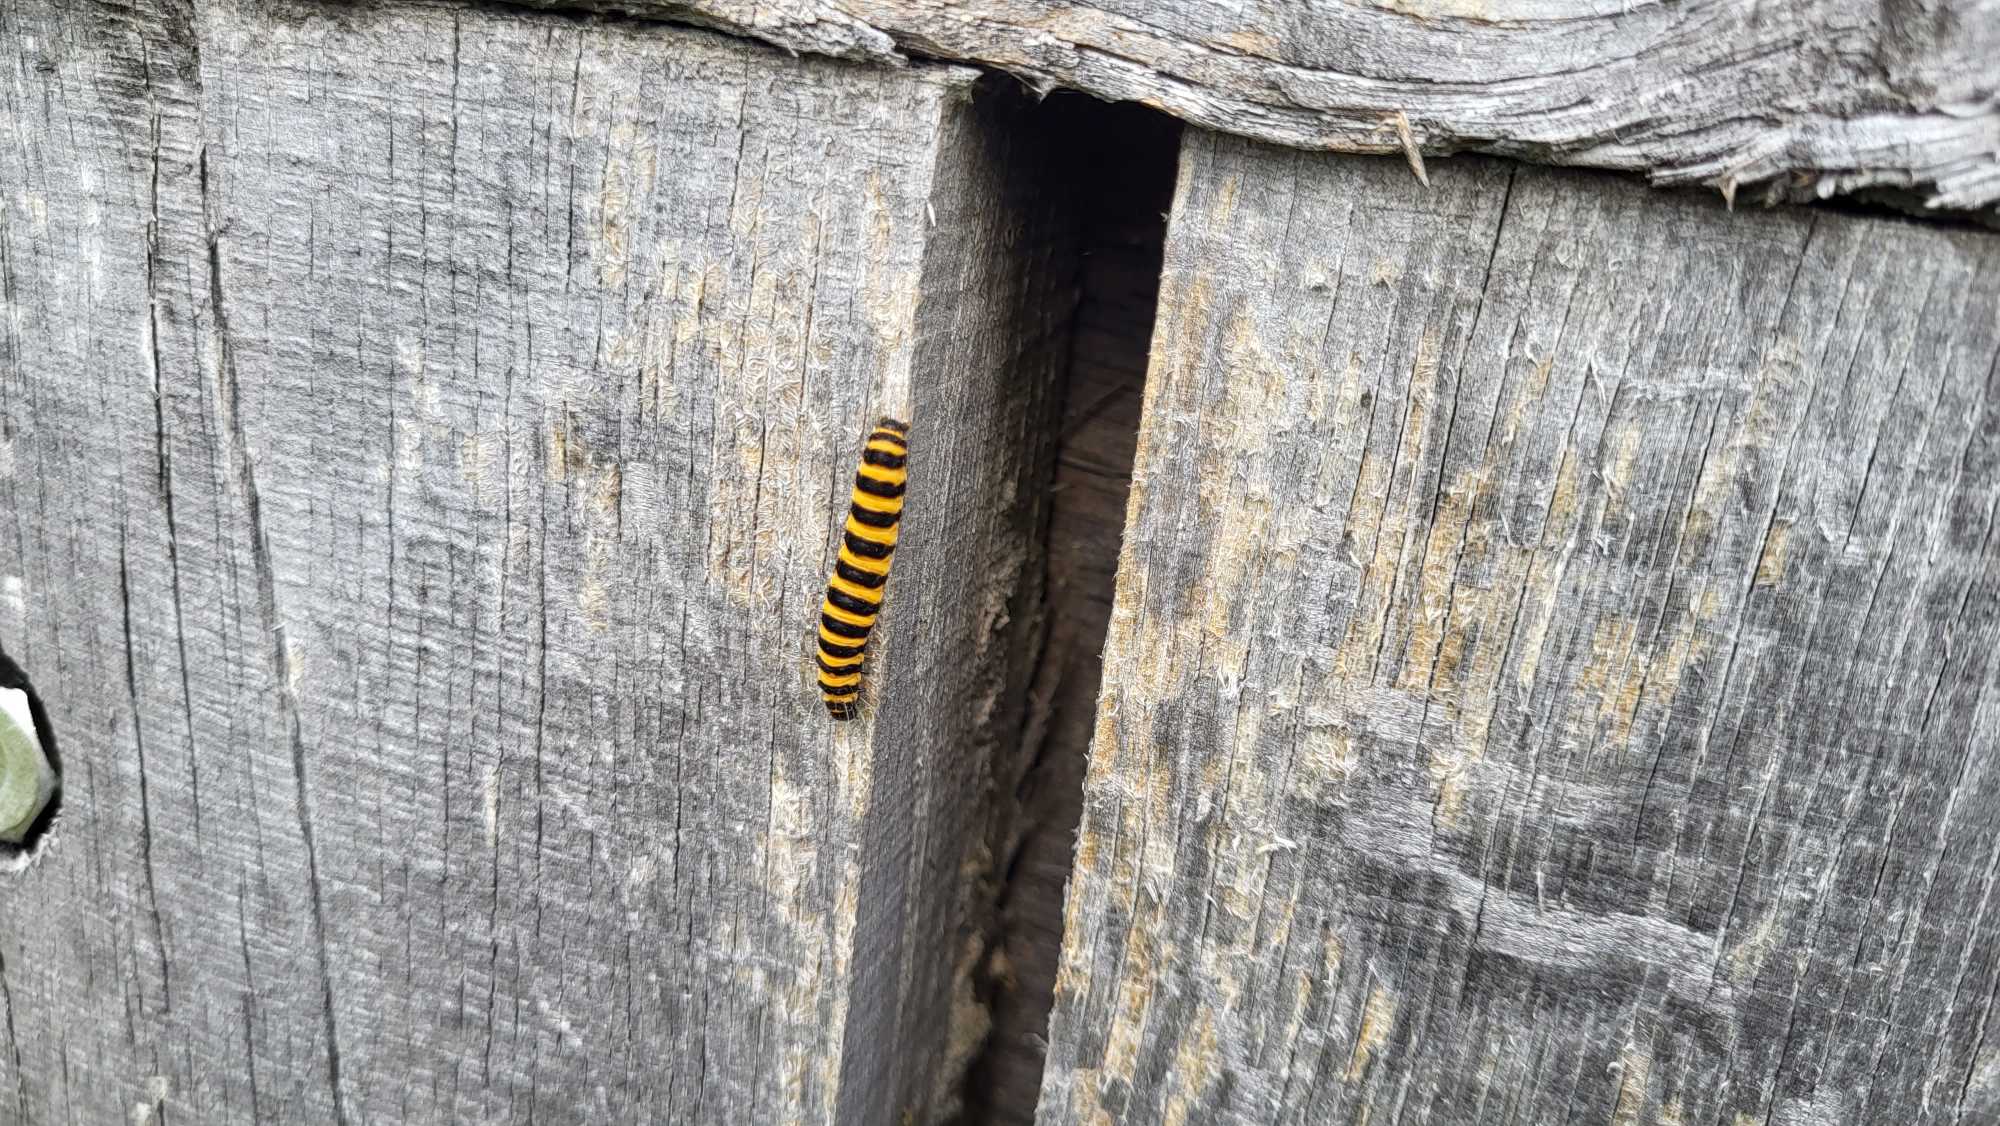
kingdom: Animalia
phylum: Arthropoda
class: Insecta
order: Lepidoptera
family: Erebidae
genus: Tyria
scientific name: Tyria jacobaeae
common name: Blodplet
